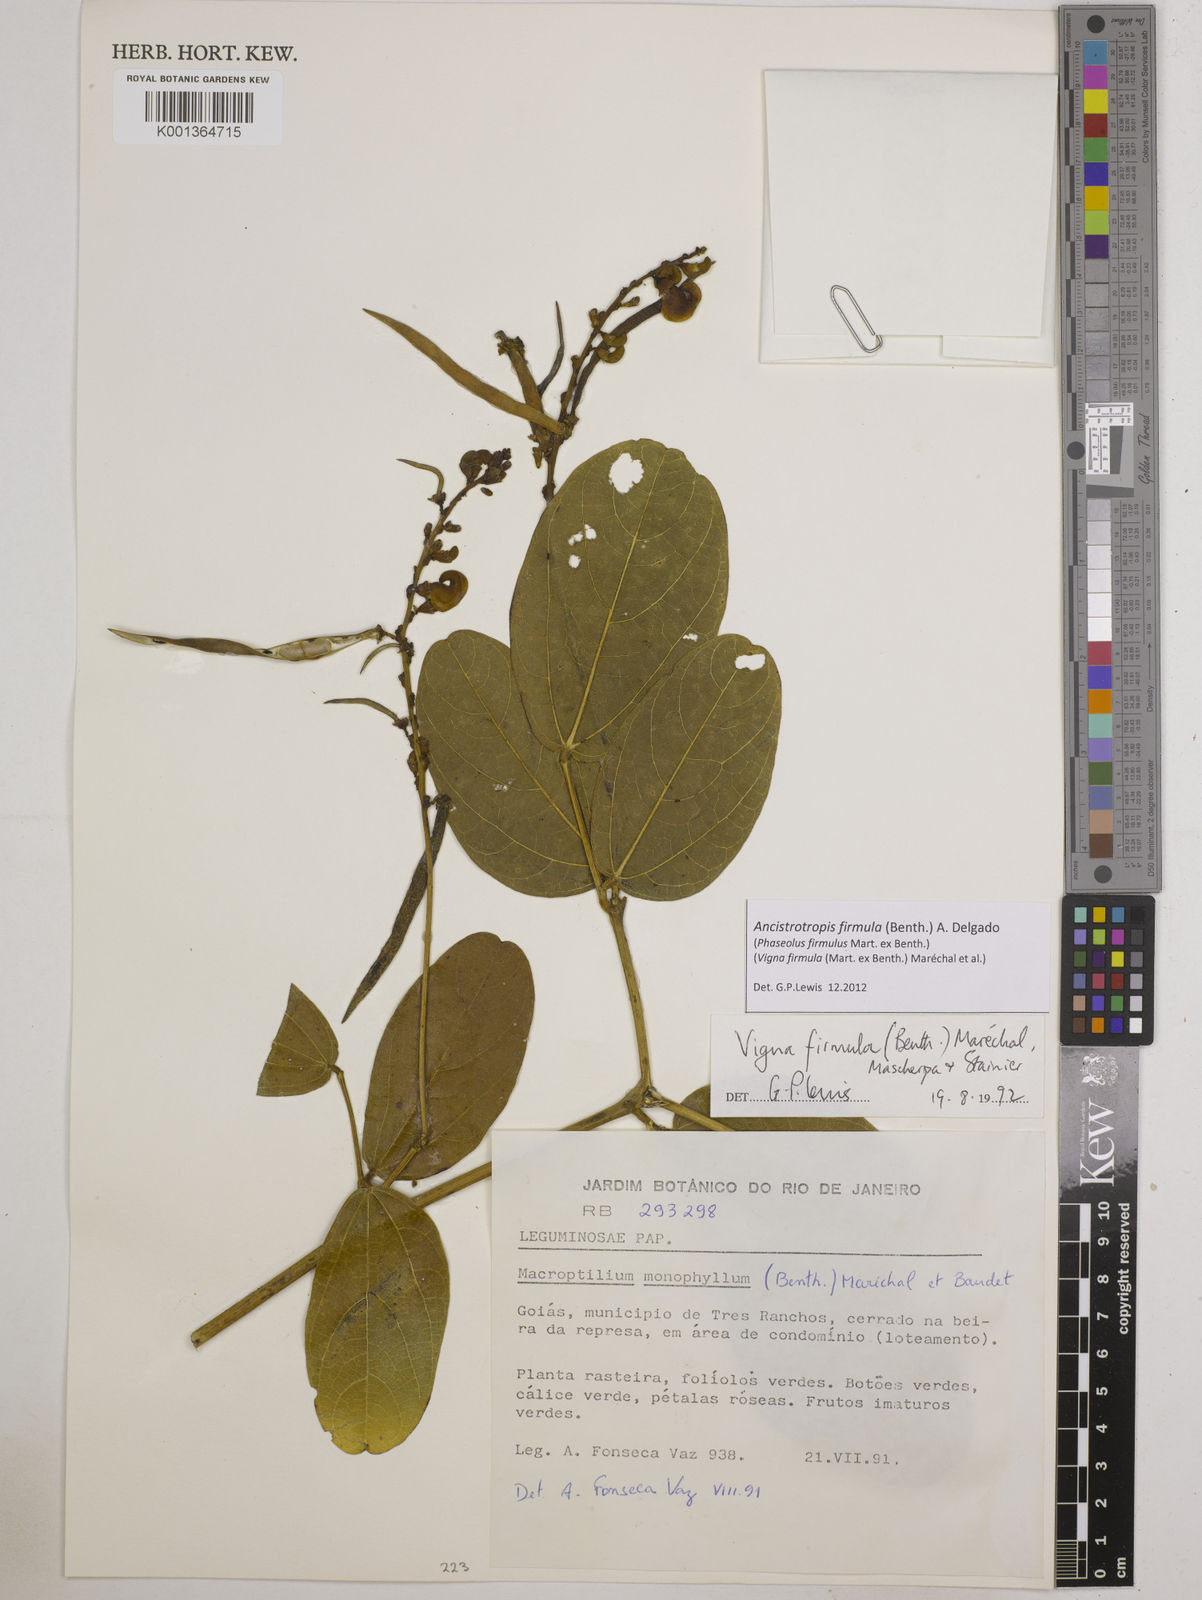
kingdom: Plantae
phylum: Tracheophyta
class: Magnoliopsida
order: Fabales
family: Fabaceae
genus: Ancistrotropis
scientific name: Ancistrotropis firmula
